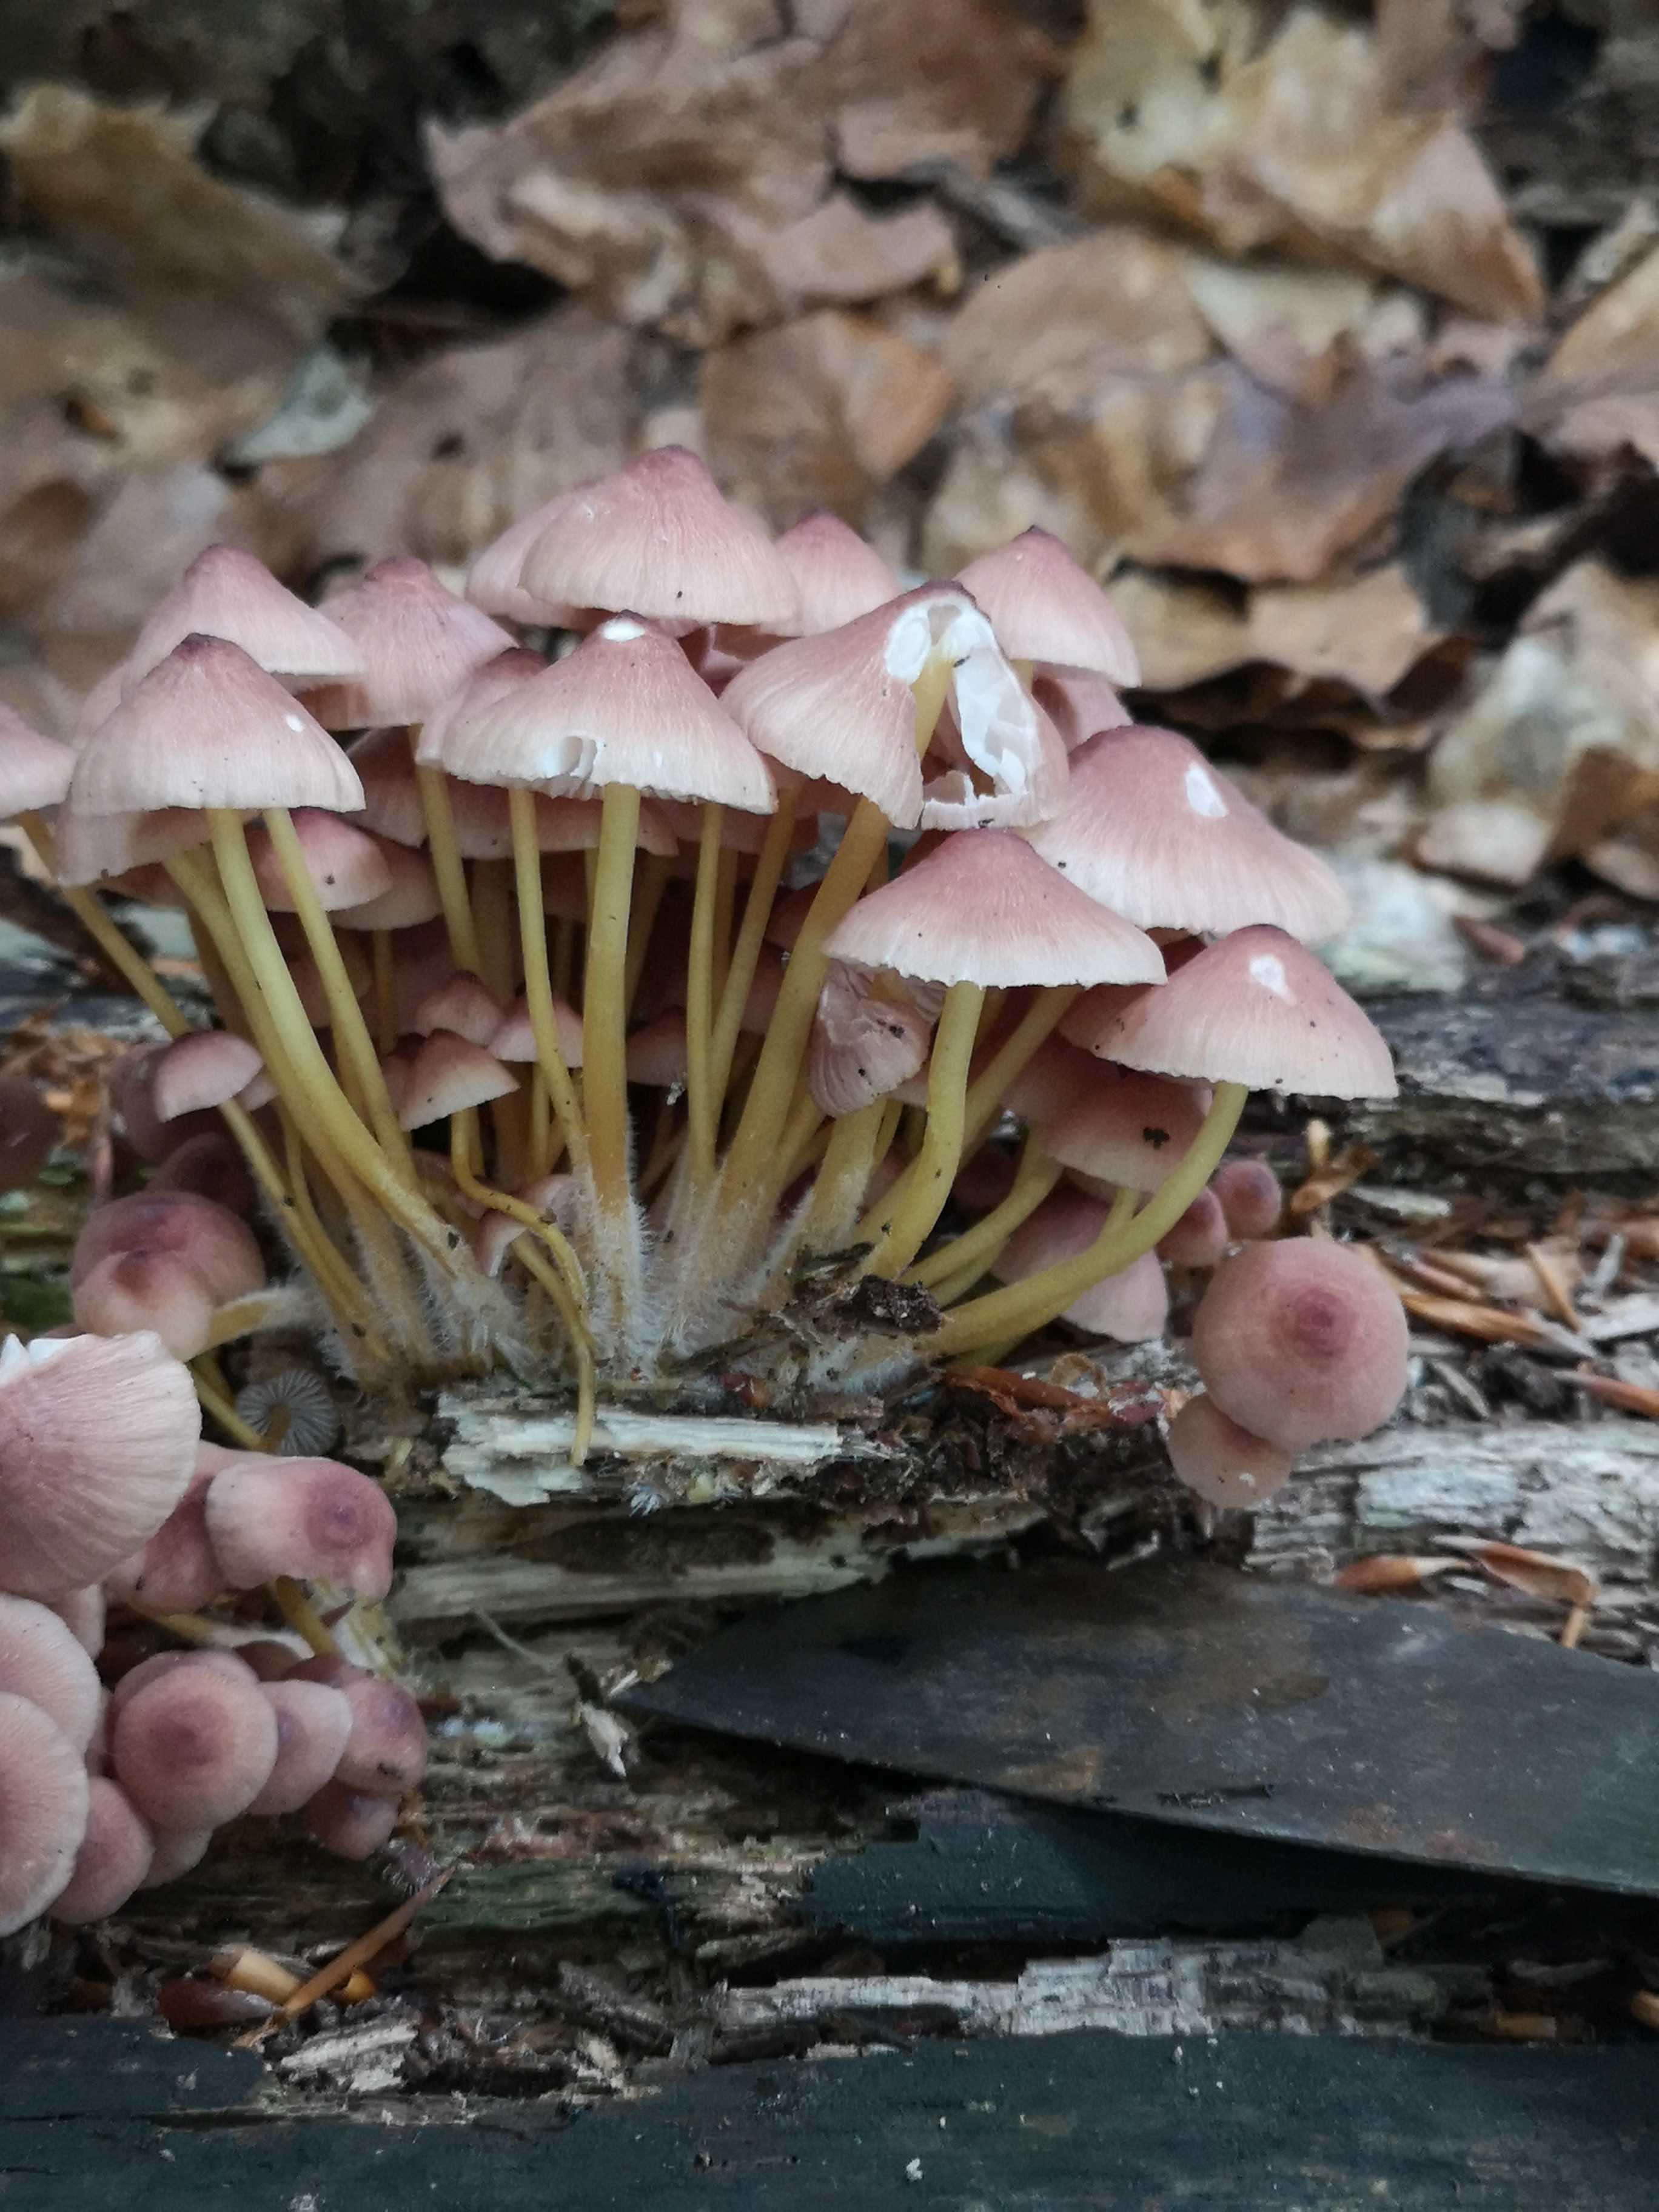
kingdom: Fungi
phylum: Basidiomycota
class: Agaricomycetes
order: Agaricales
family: Mycenaceae
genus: Mycena
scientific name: Mycena renati
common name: smuk huesvamp
